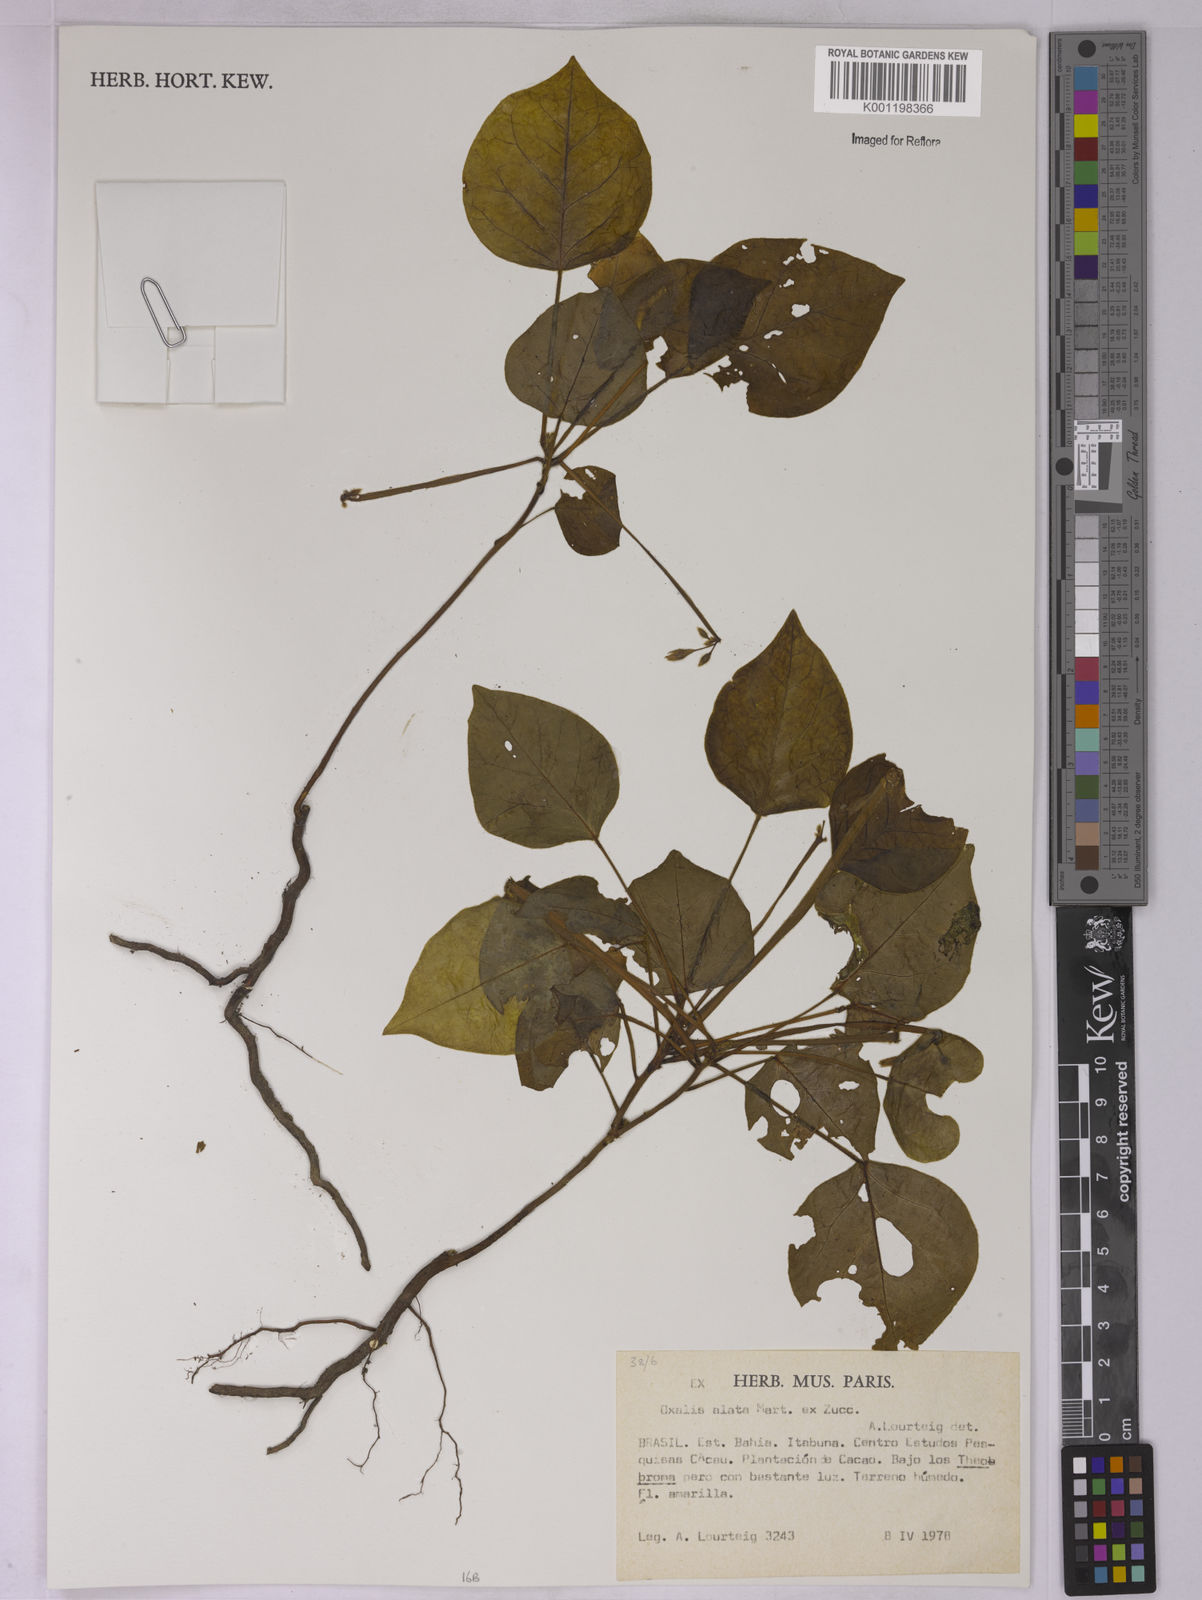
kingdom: Plantae
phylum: Tracheophyta
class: Magnoliopsida
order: Oxalidales
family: Oxalidaceae
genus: Oxalis
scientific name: Oxalis alata
